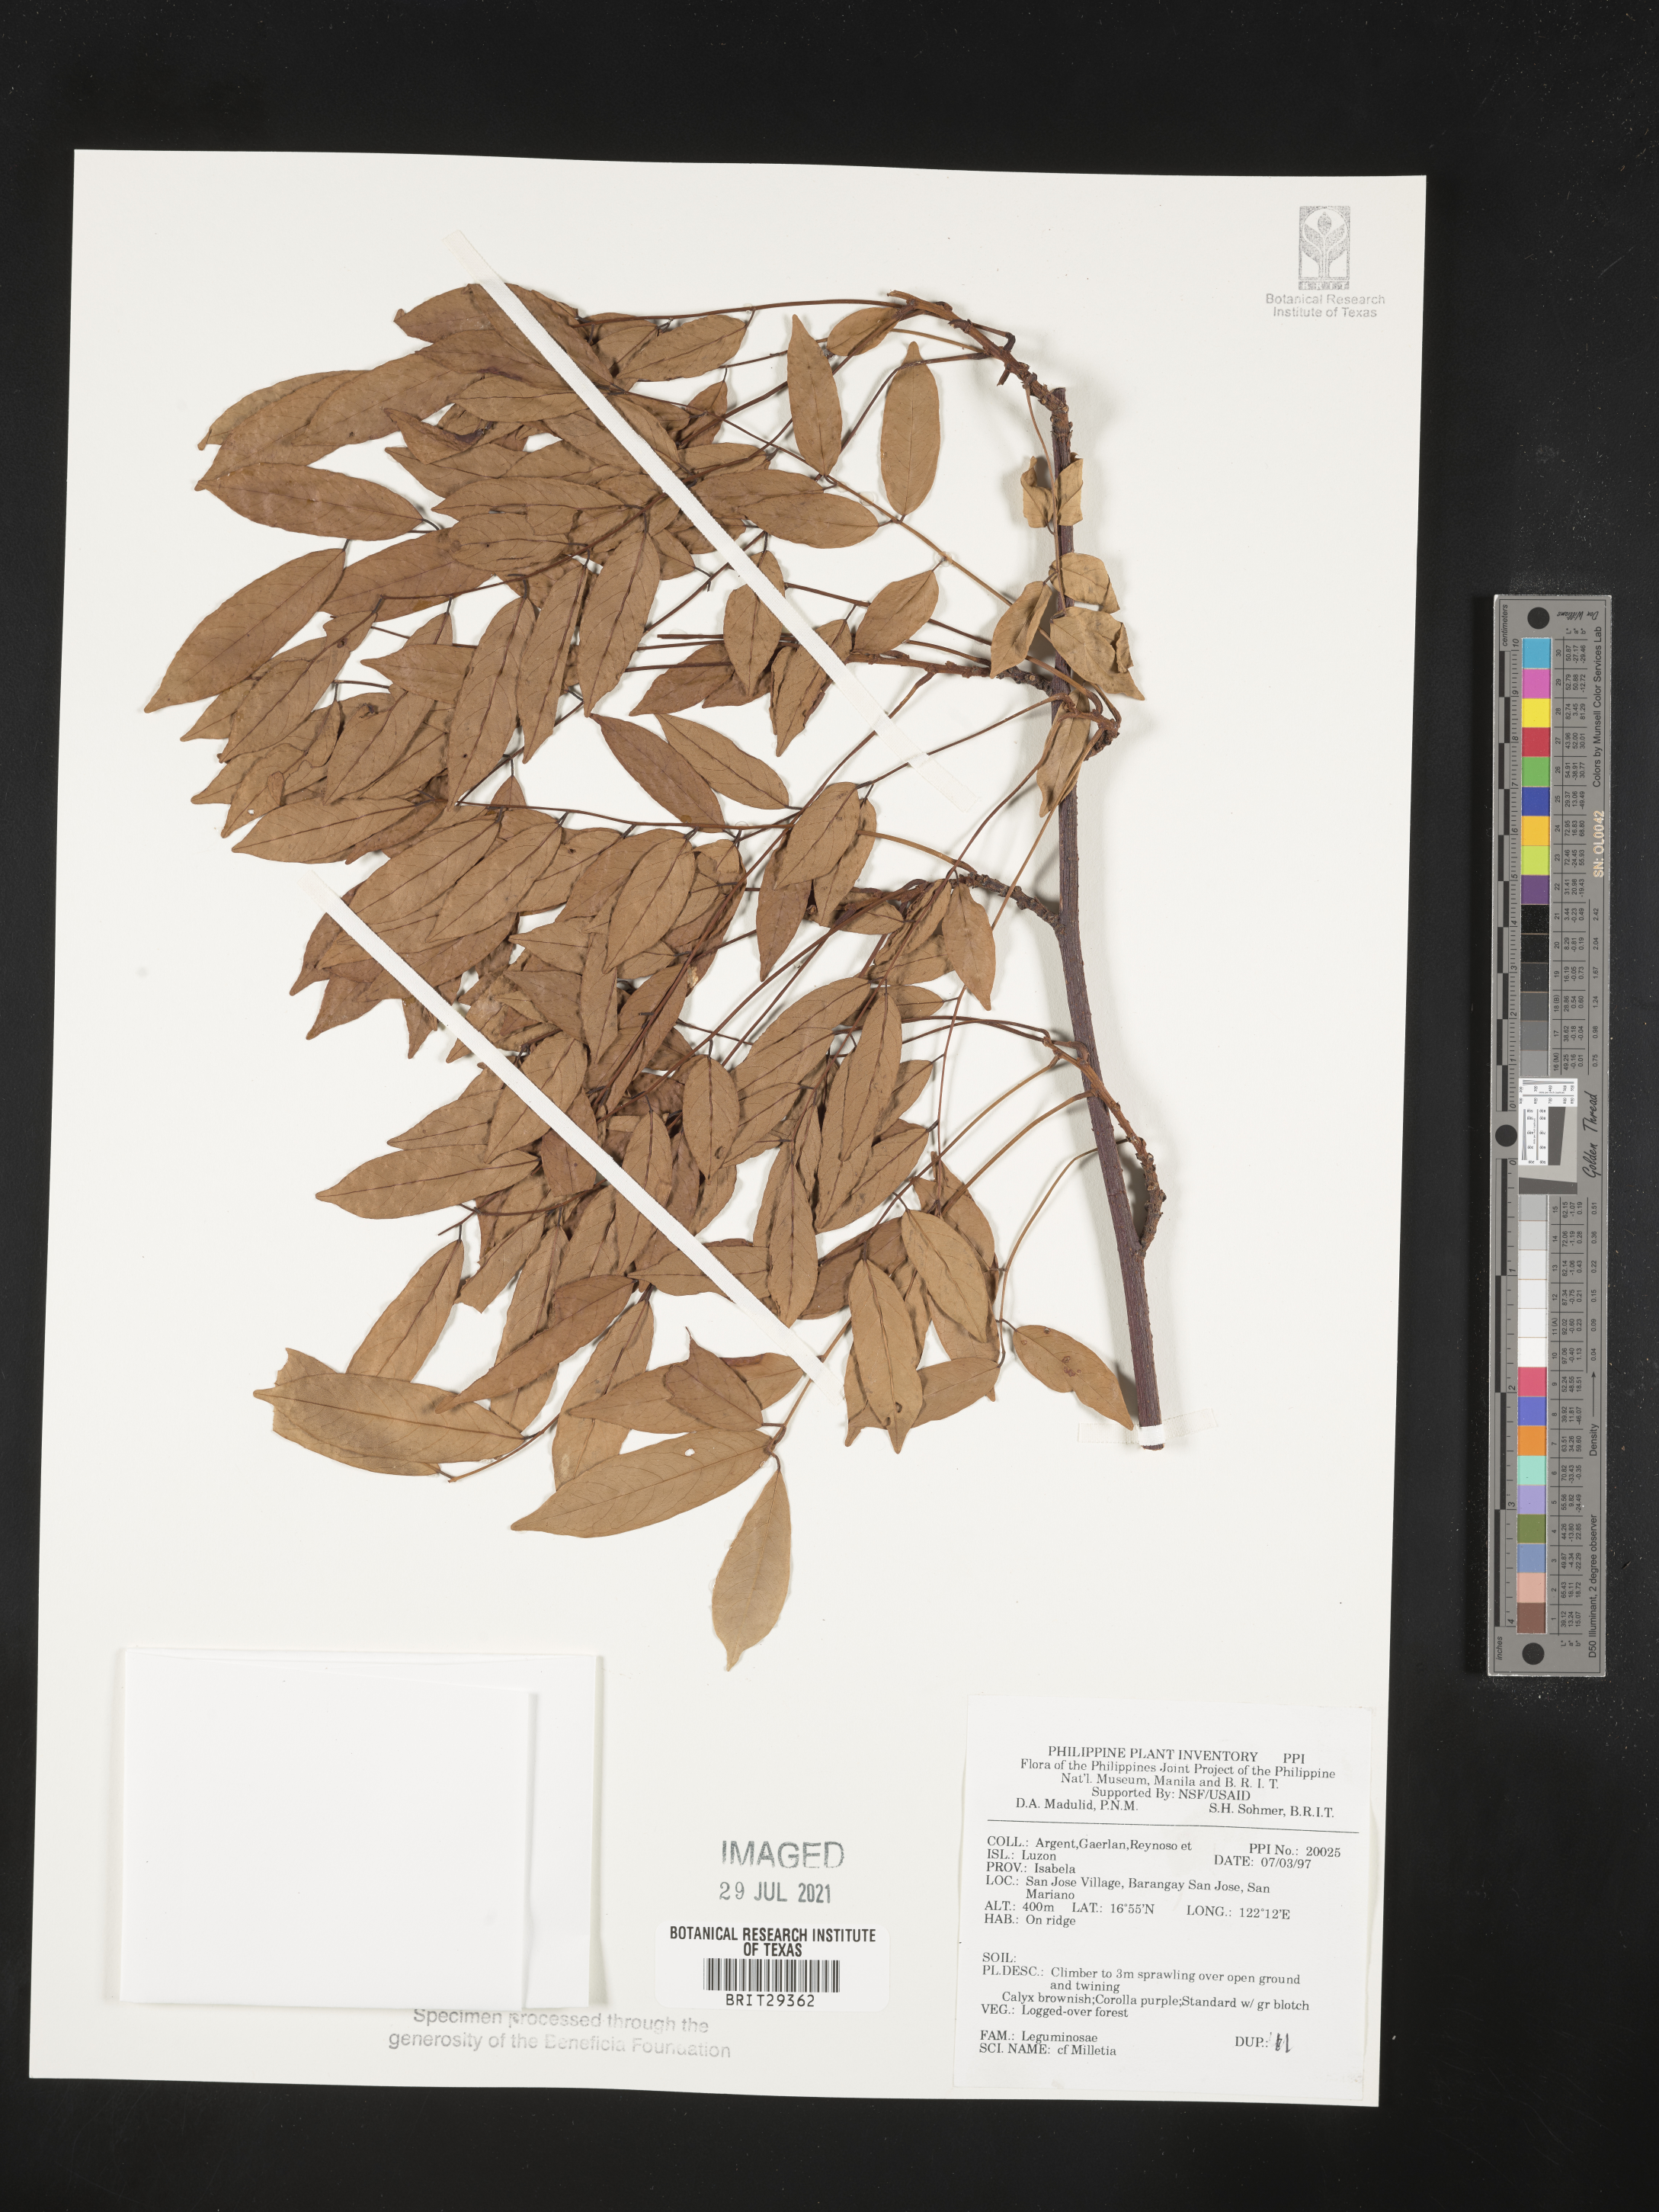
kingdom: Plantae
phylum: Tracheophyta
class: Magnoliopsida
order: Fabales
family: Fabaceae
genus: Millettia
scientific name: Millettia
